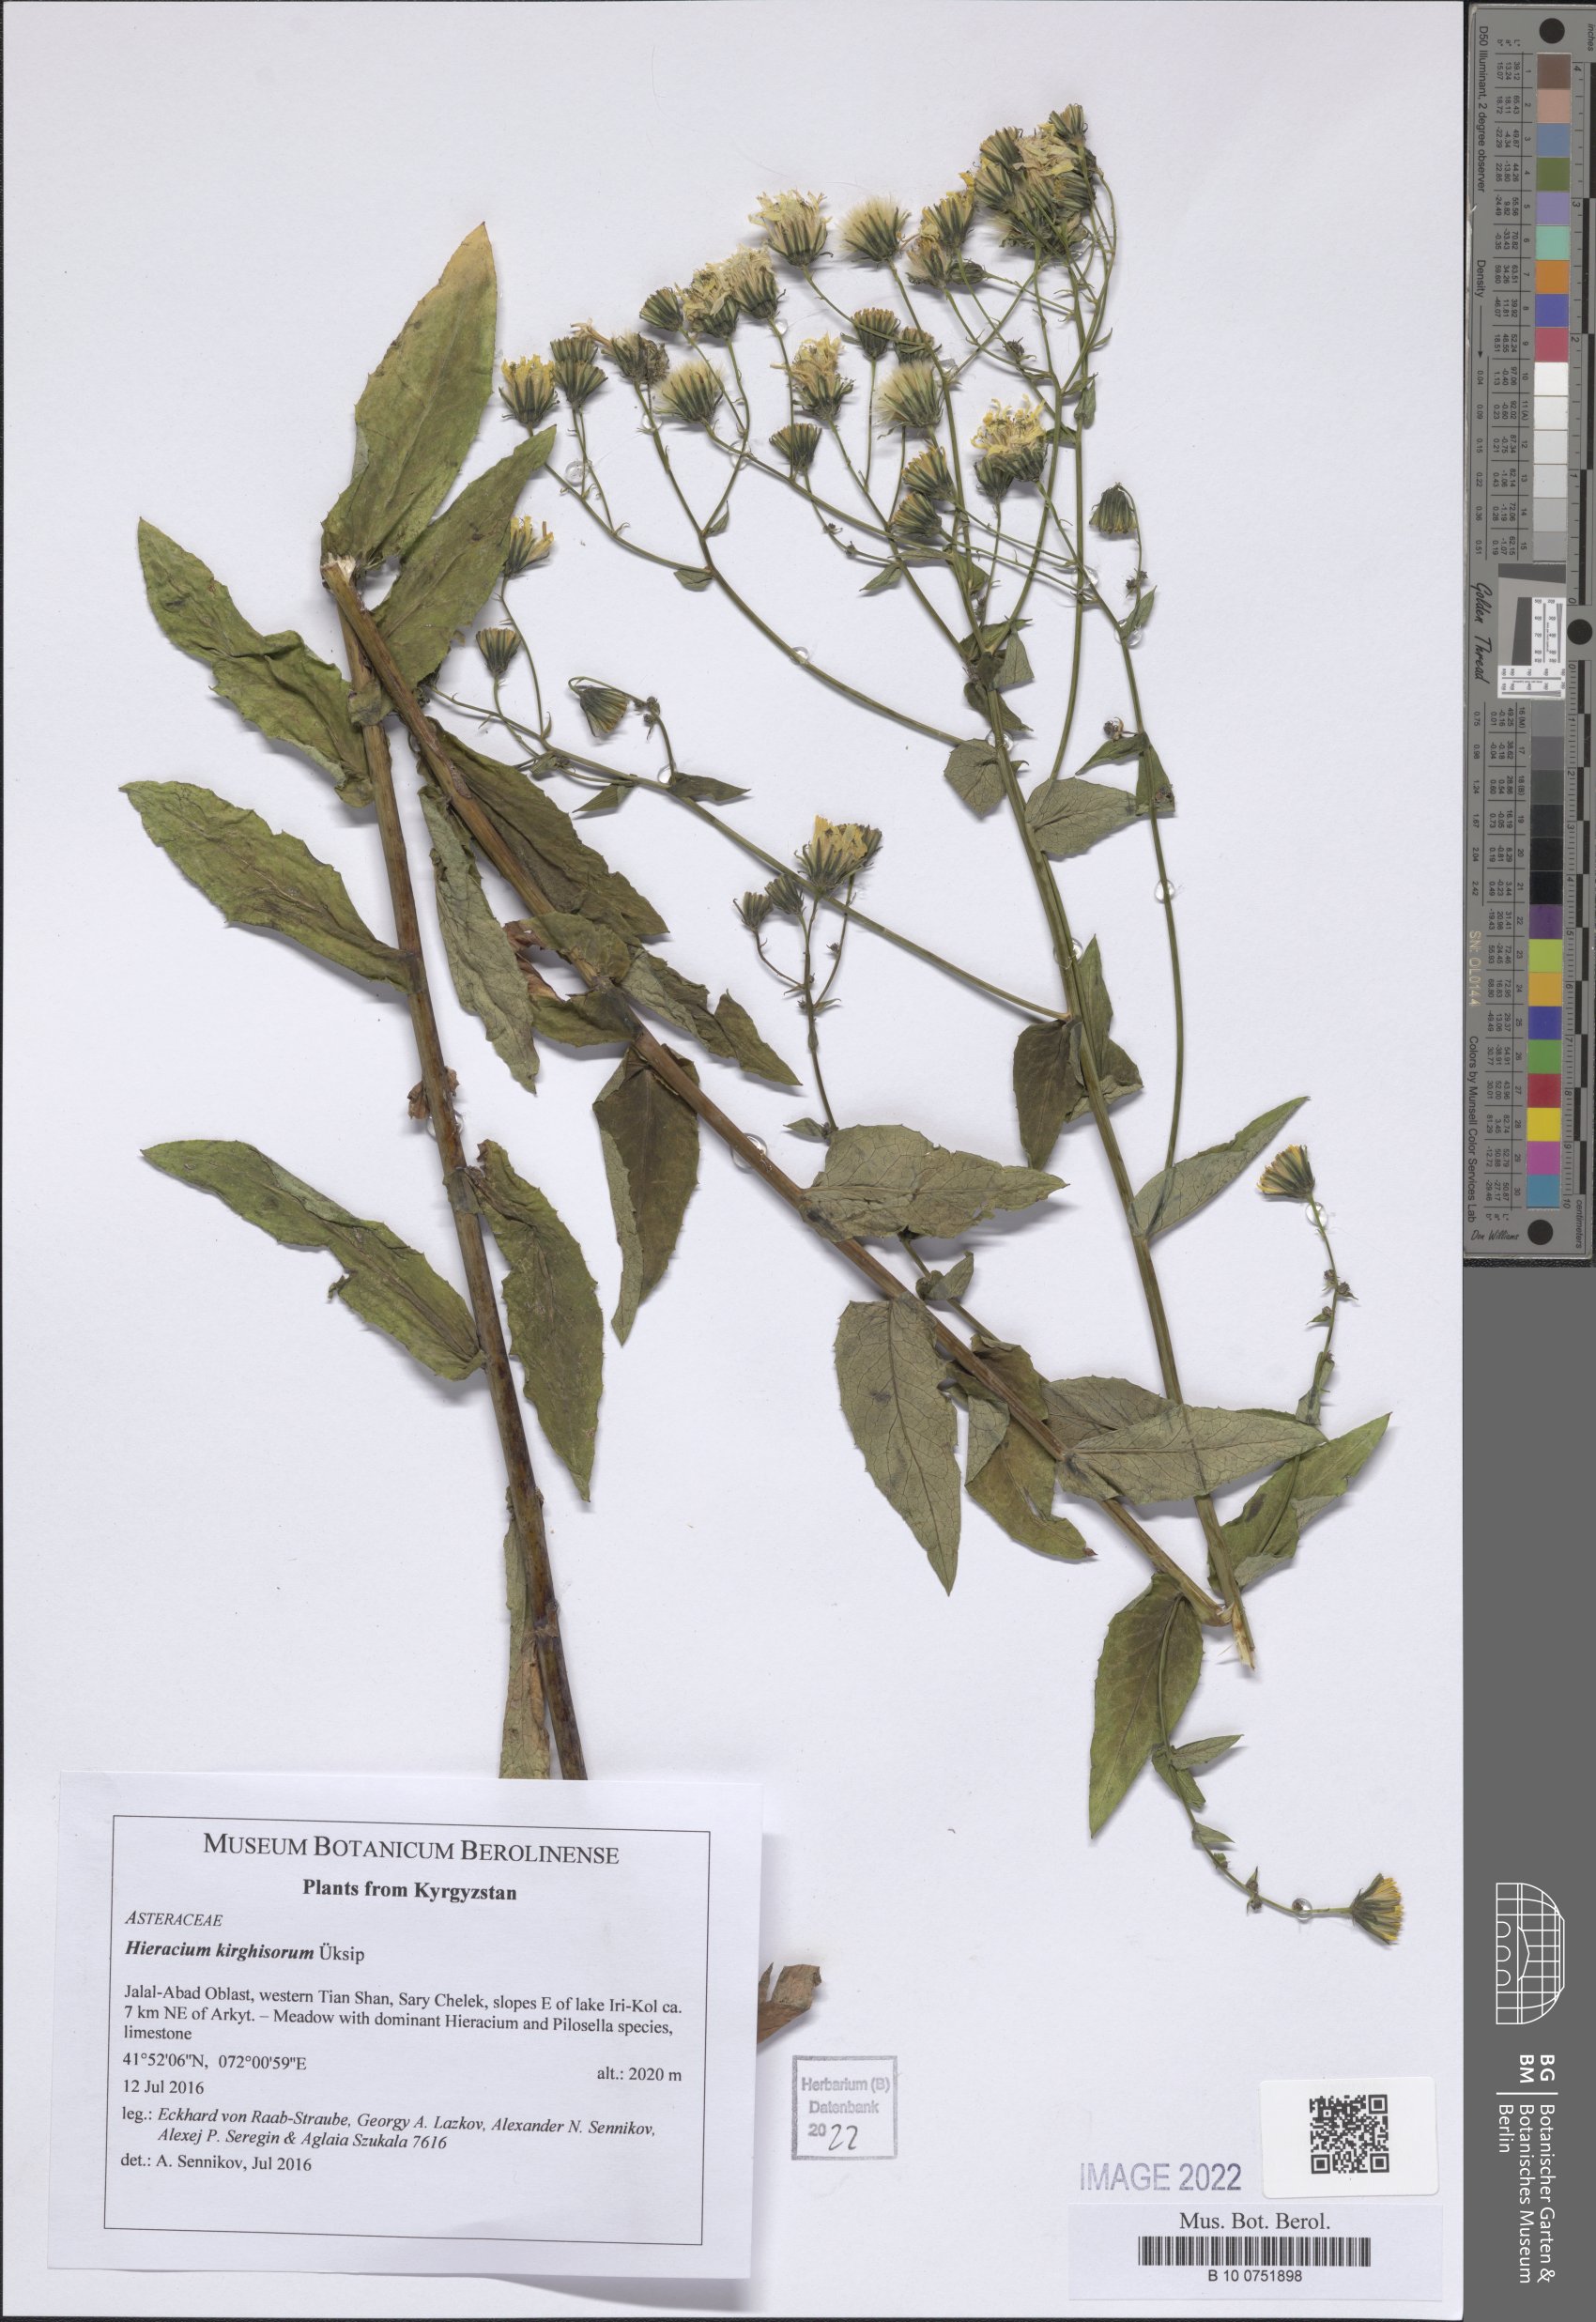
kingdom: Plantae
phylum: Tracheophyta
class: Magnoliopsida
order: Asterales
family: Asteraceae
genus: Hieracium
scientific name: Hieracium kirghisorum
